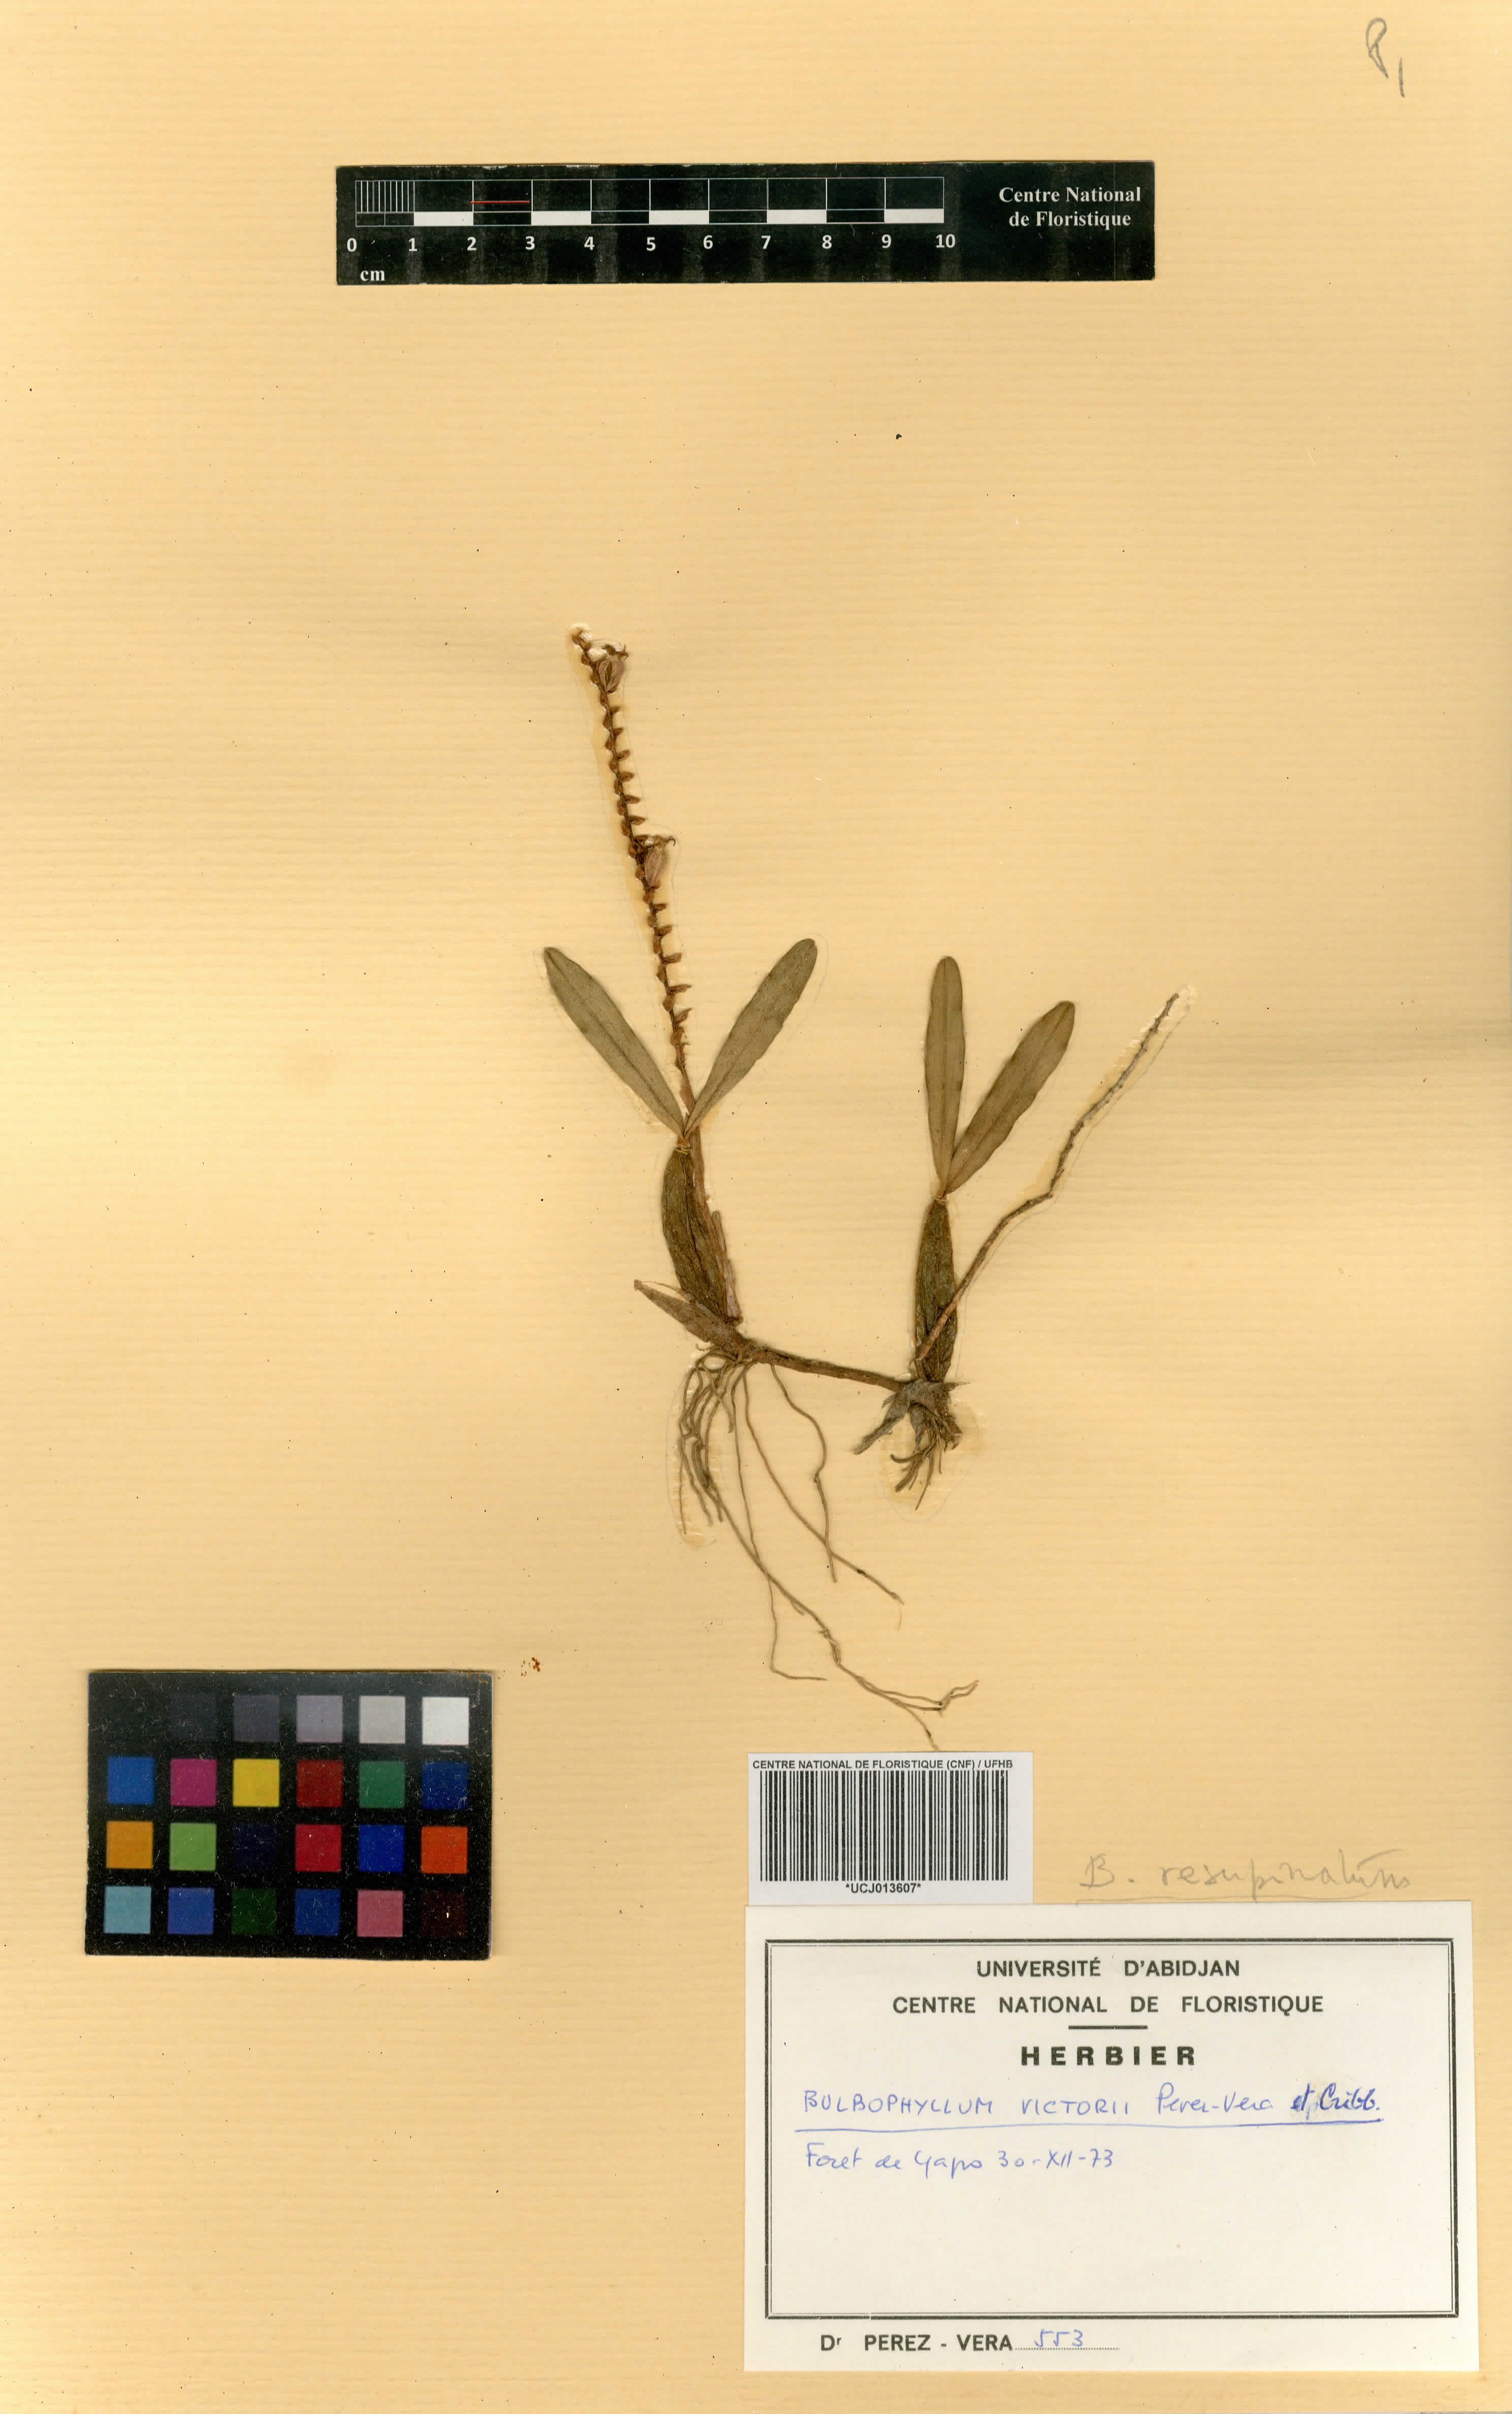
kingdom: Plantae
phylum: Tracheophyta
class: Liliopsida
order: Asparagales
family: Orchidaceae
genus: Bulbophyllum
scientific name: Bulbophyllum resupinatum
